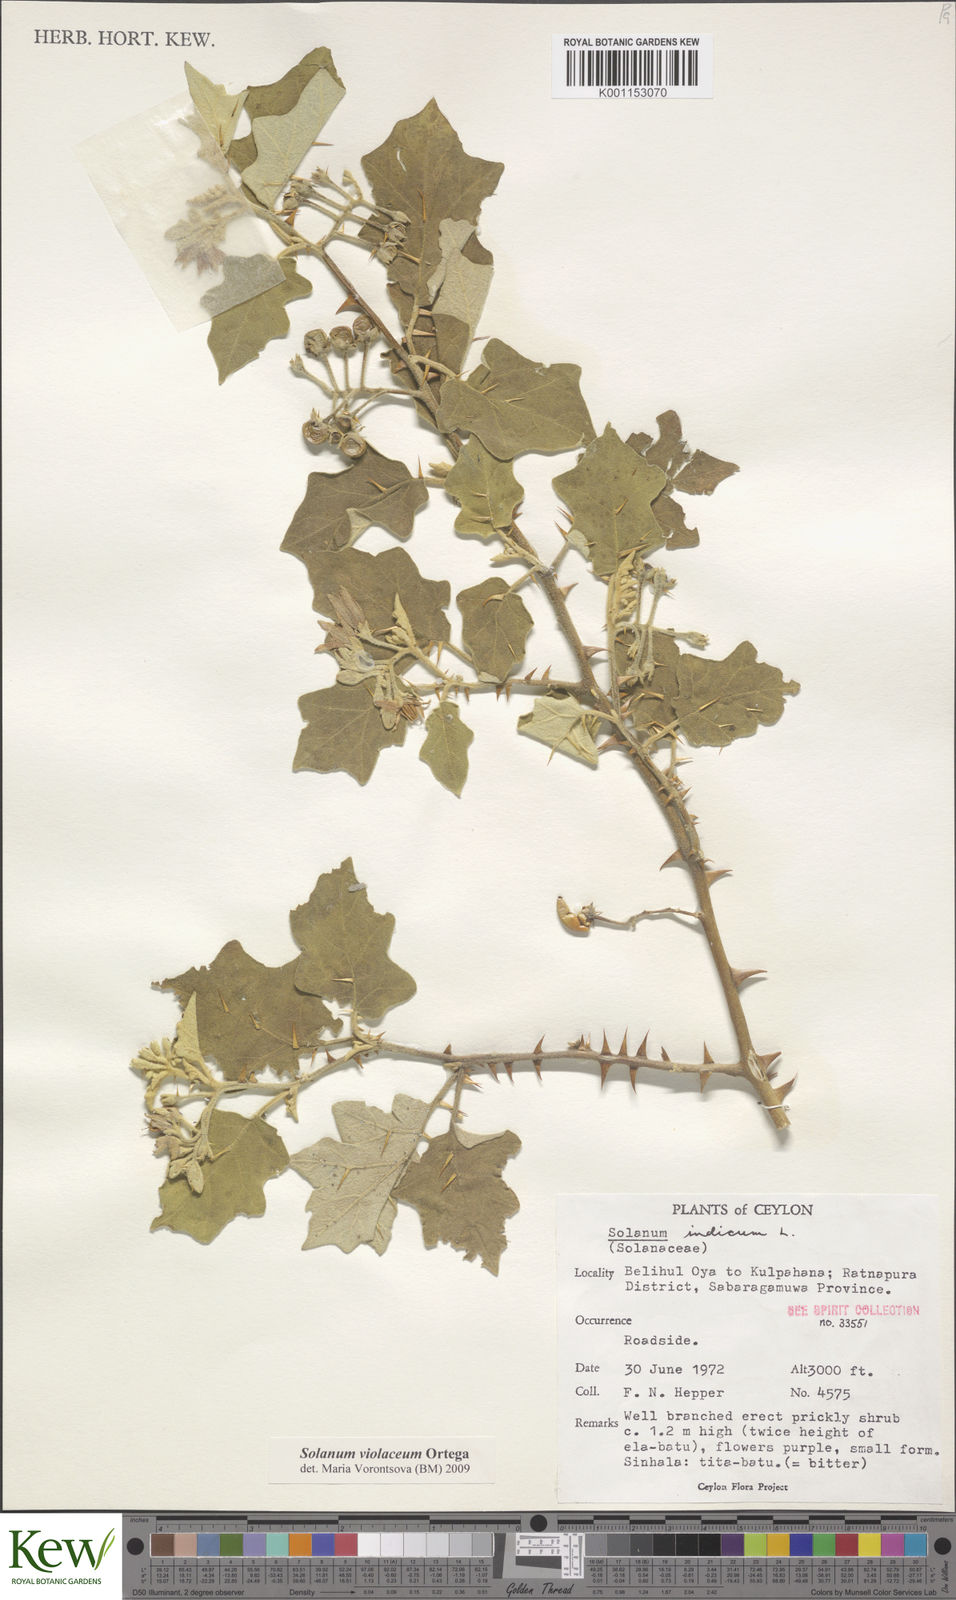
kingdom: Plantae
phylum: Tracheophyta
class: Magnoliopsida
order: Solanales
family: Solanaceae
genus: Solanum
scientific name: Solanum violaceum
